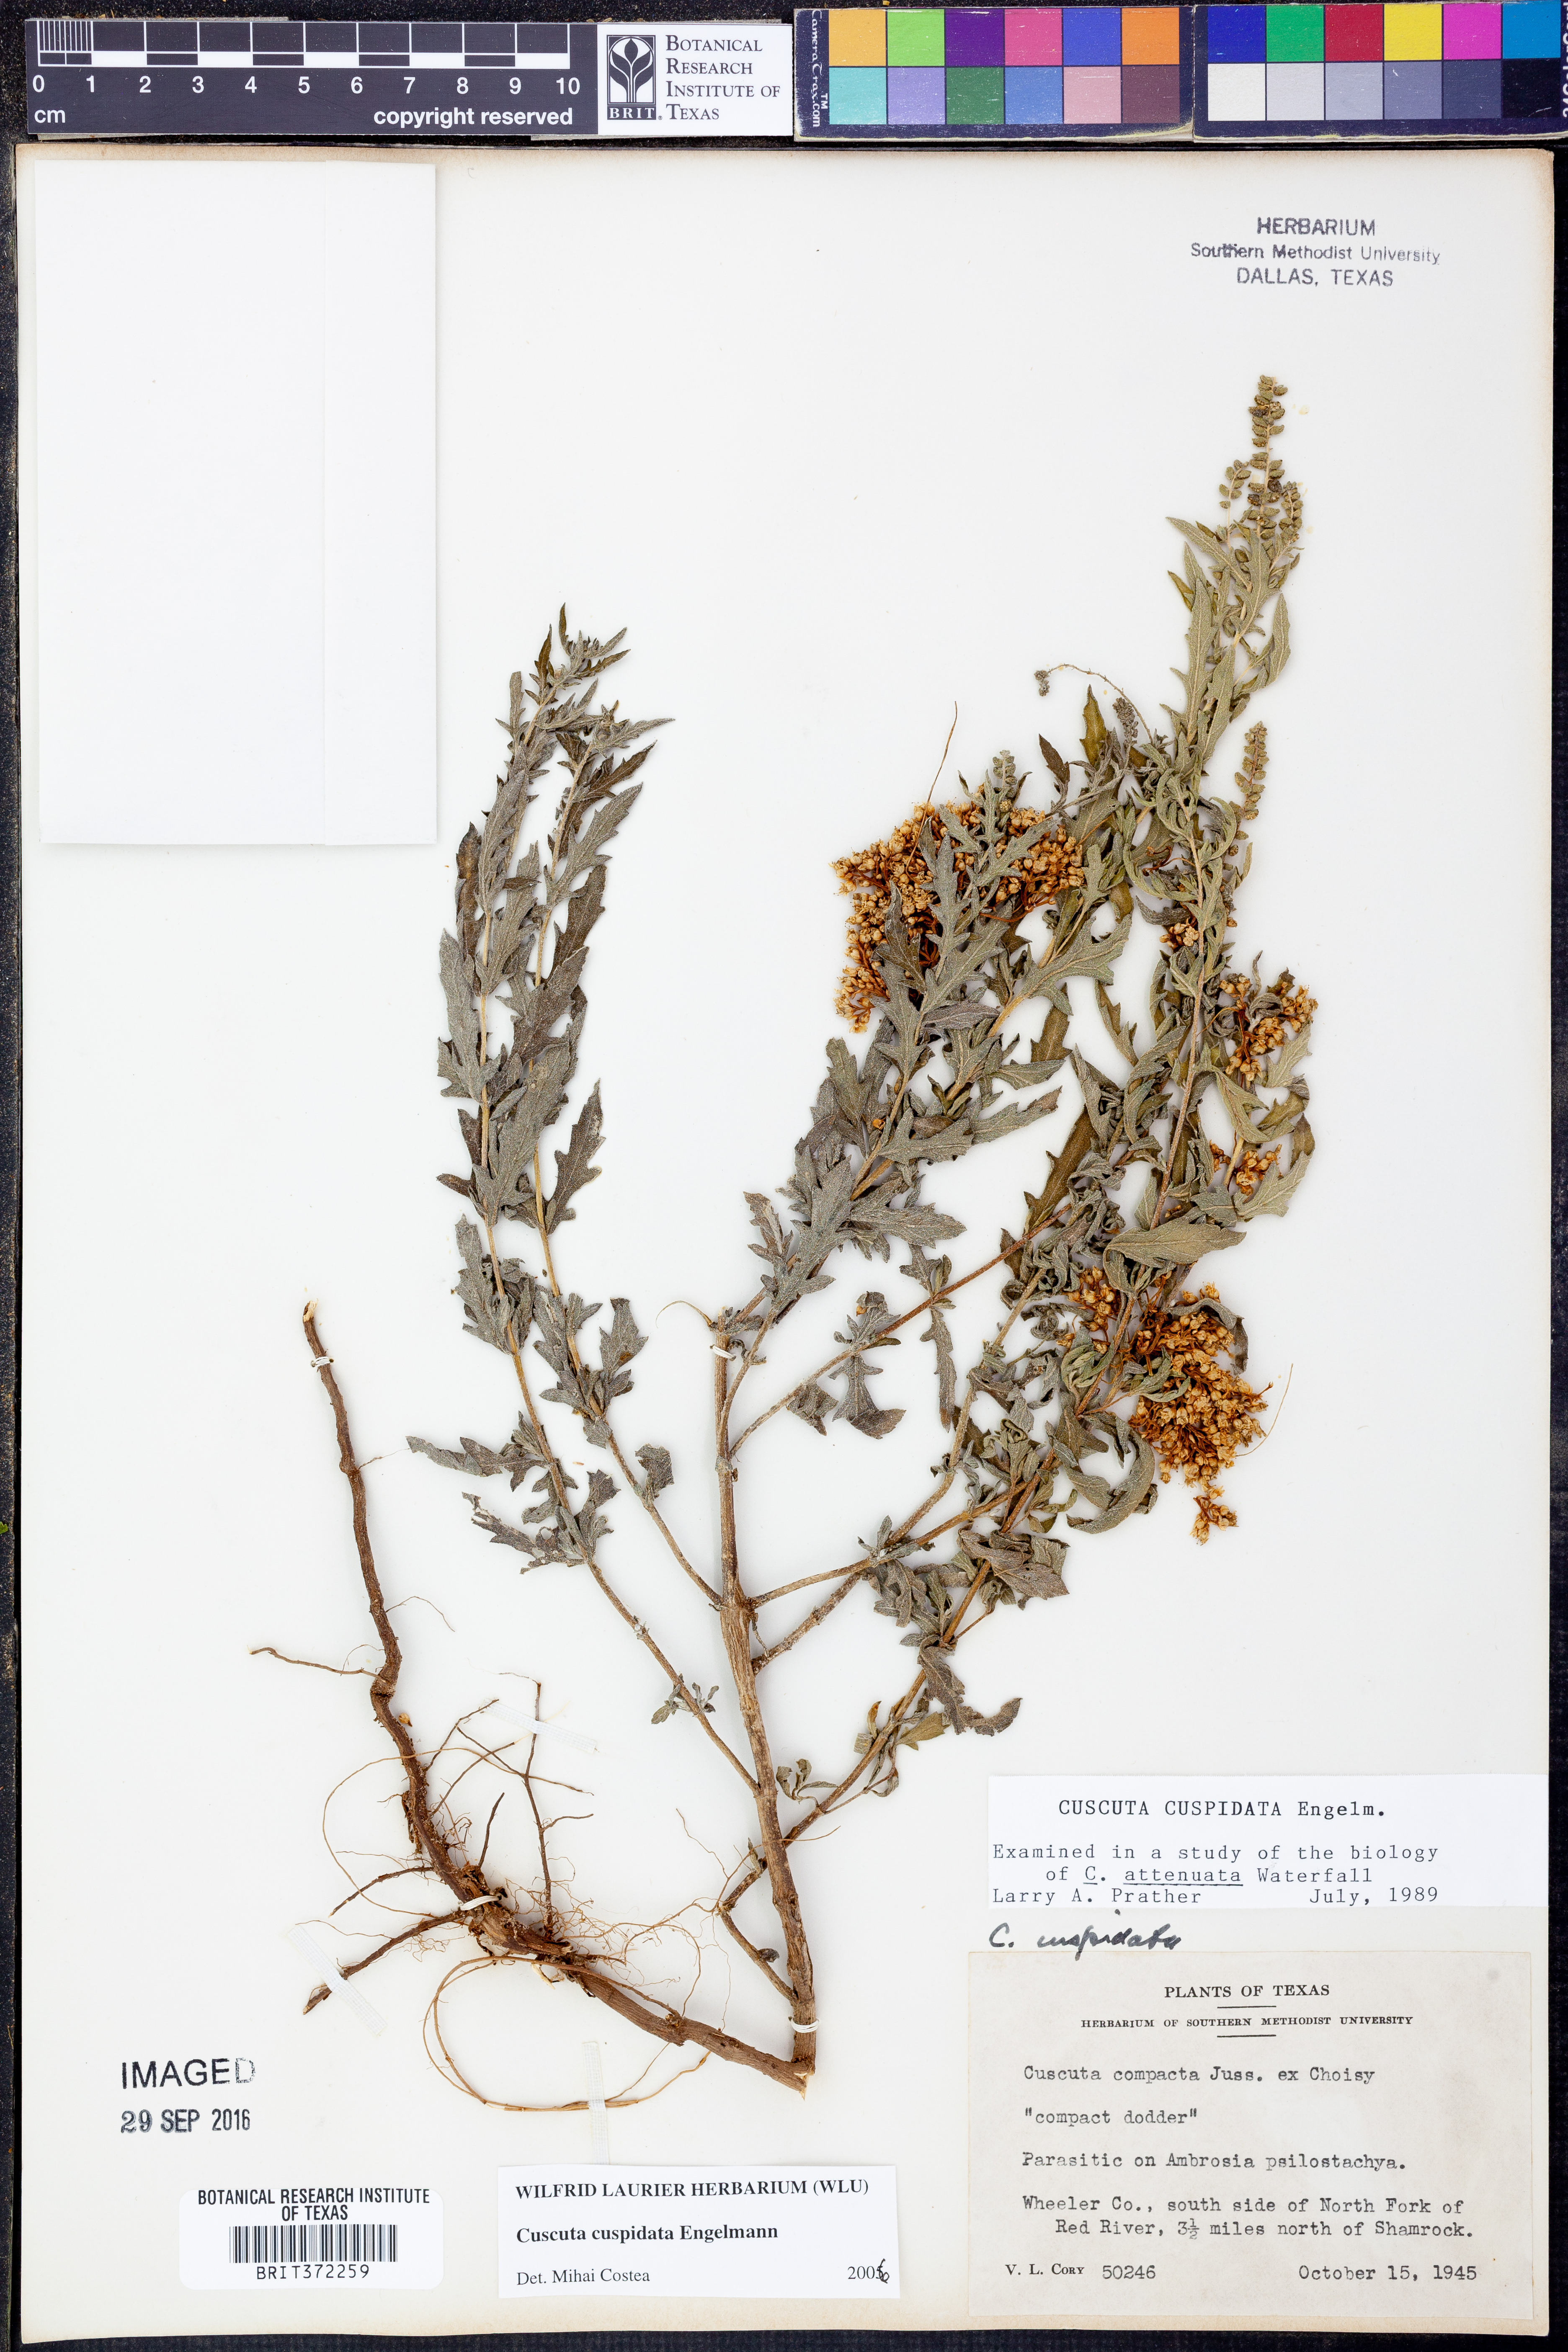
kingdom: Plantae
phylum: Tracheophyta
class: Magnoliopsida
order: Solanales
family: Convolvulaceae
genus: Cuscuta
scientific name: Cuscuta cuspidata
